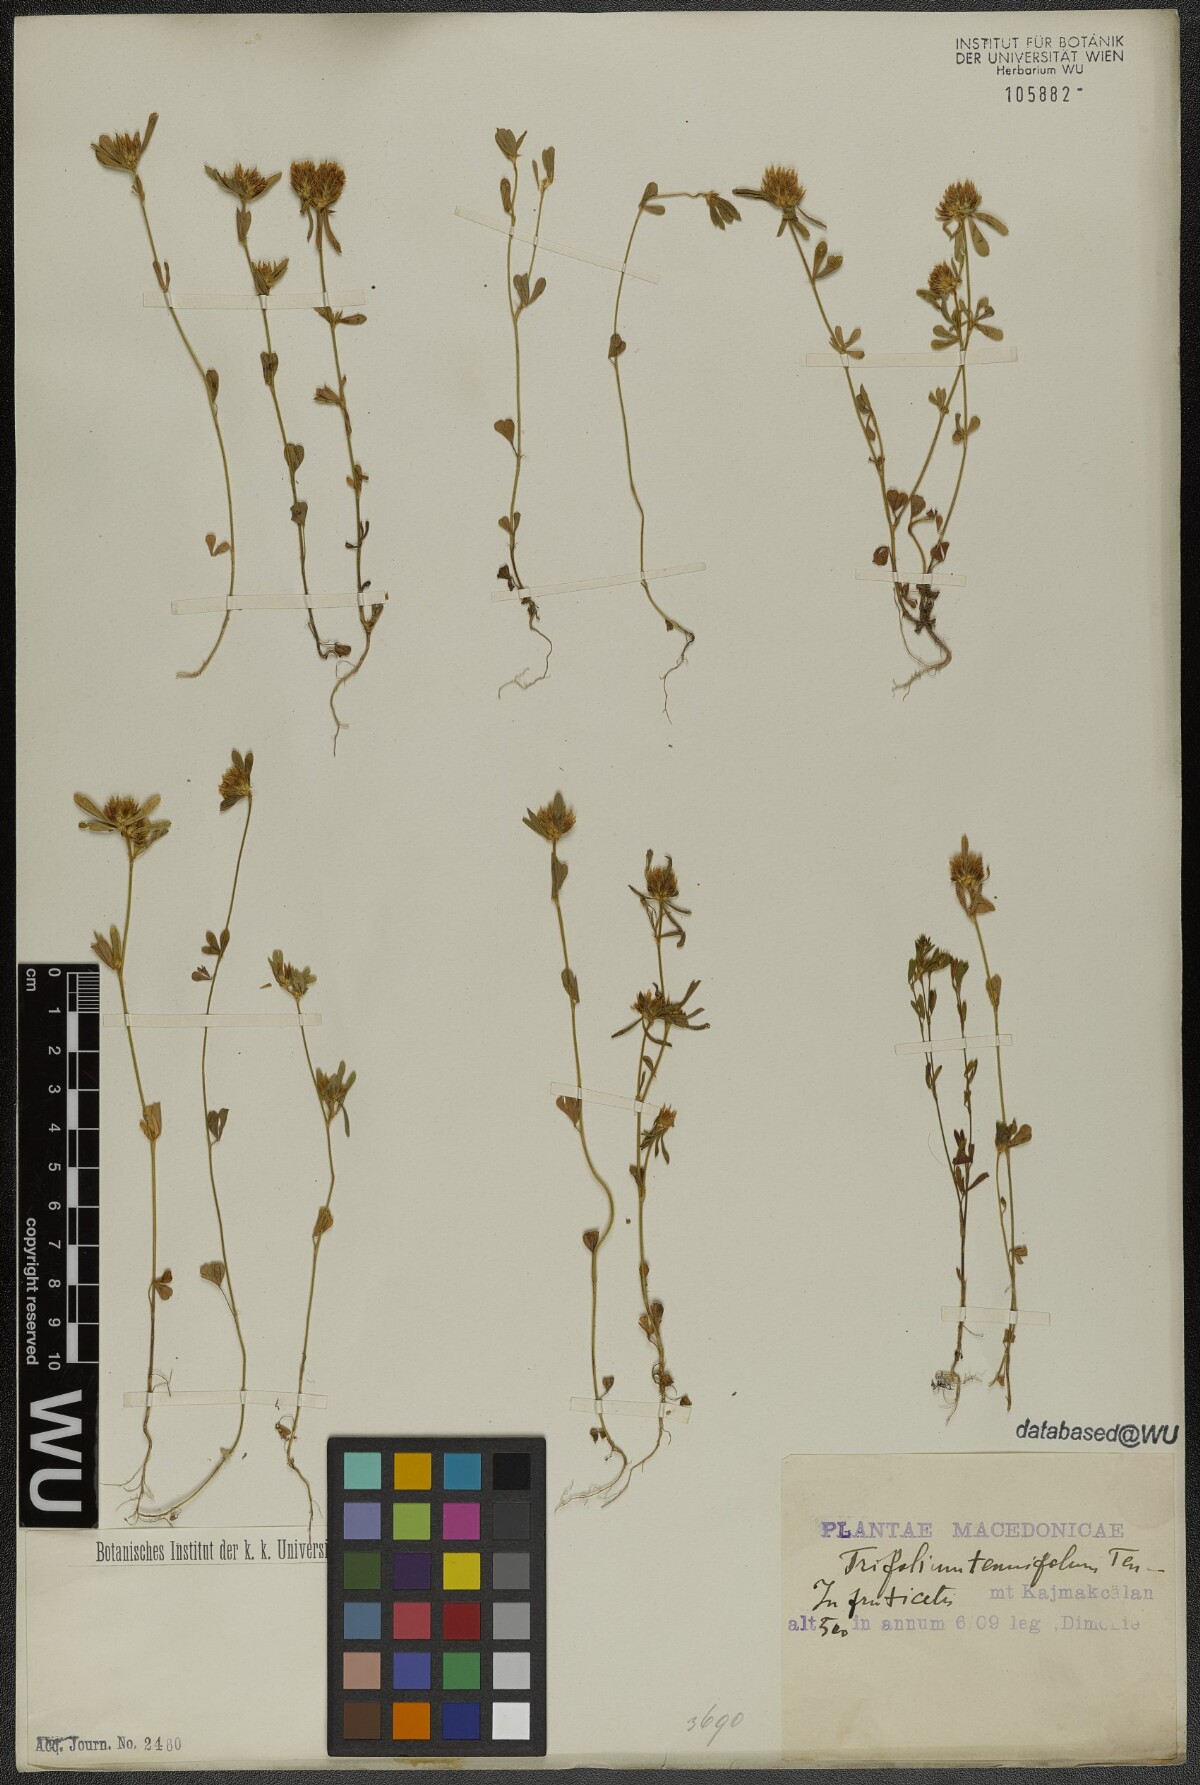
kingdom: Plantae
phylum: Tracheophyta
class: Magnoliopsida
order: Fabales
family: Fabaceae
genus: Trifolium
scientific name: Trifolium tenuifolium
